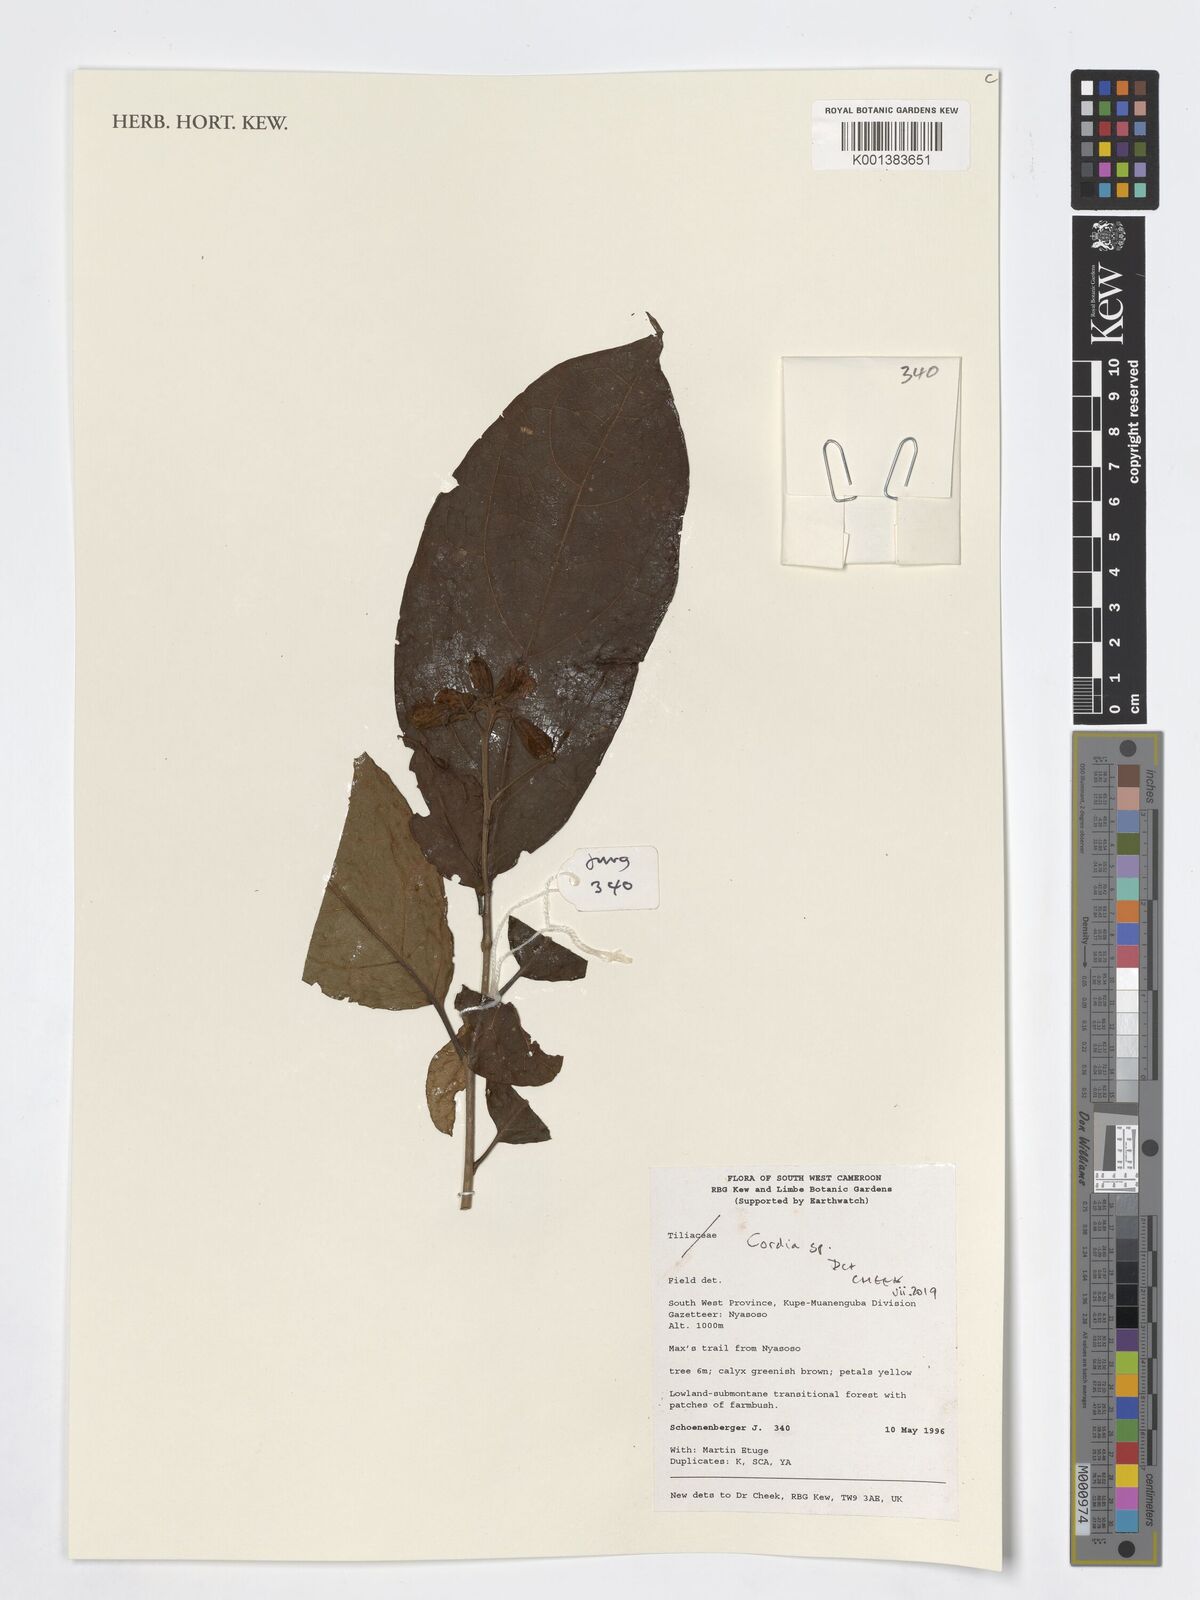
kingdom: Plantae
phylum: Tracheophyta
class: Magnoliopsida
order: Boraginales
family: Cordiaceae
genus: Cordia
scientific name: Cordia
